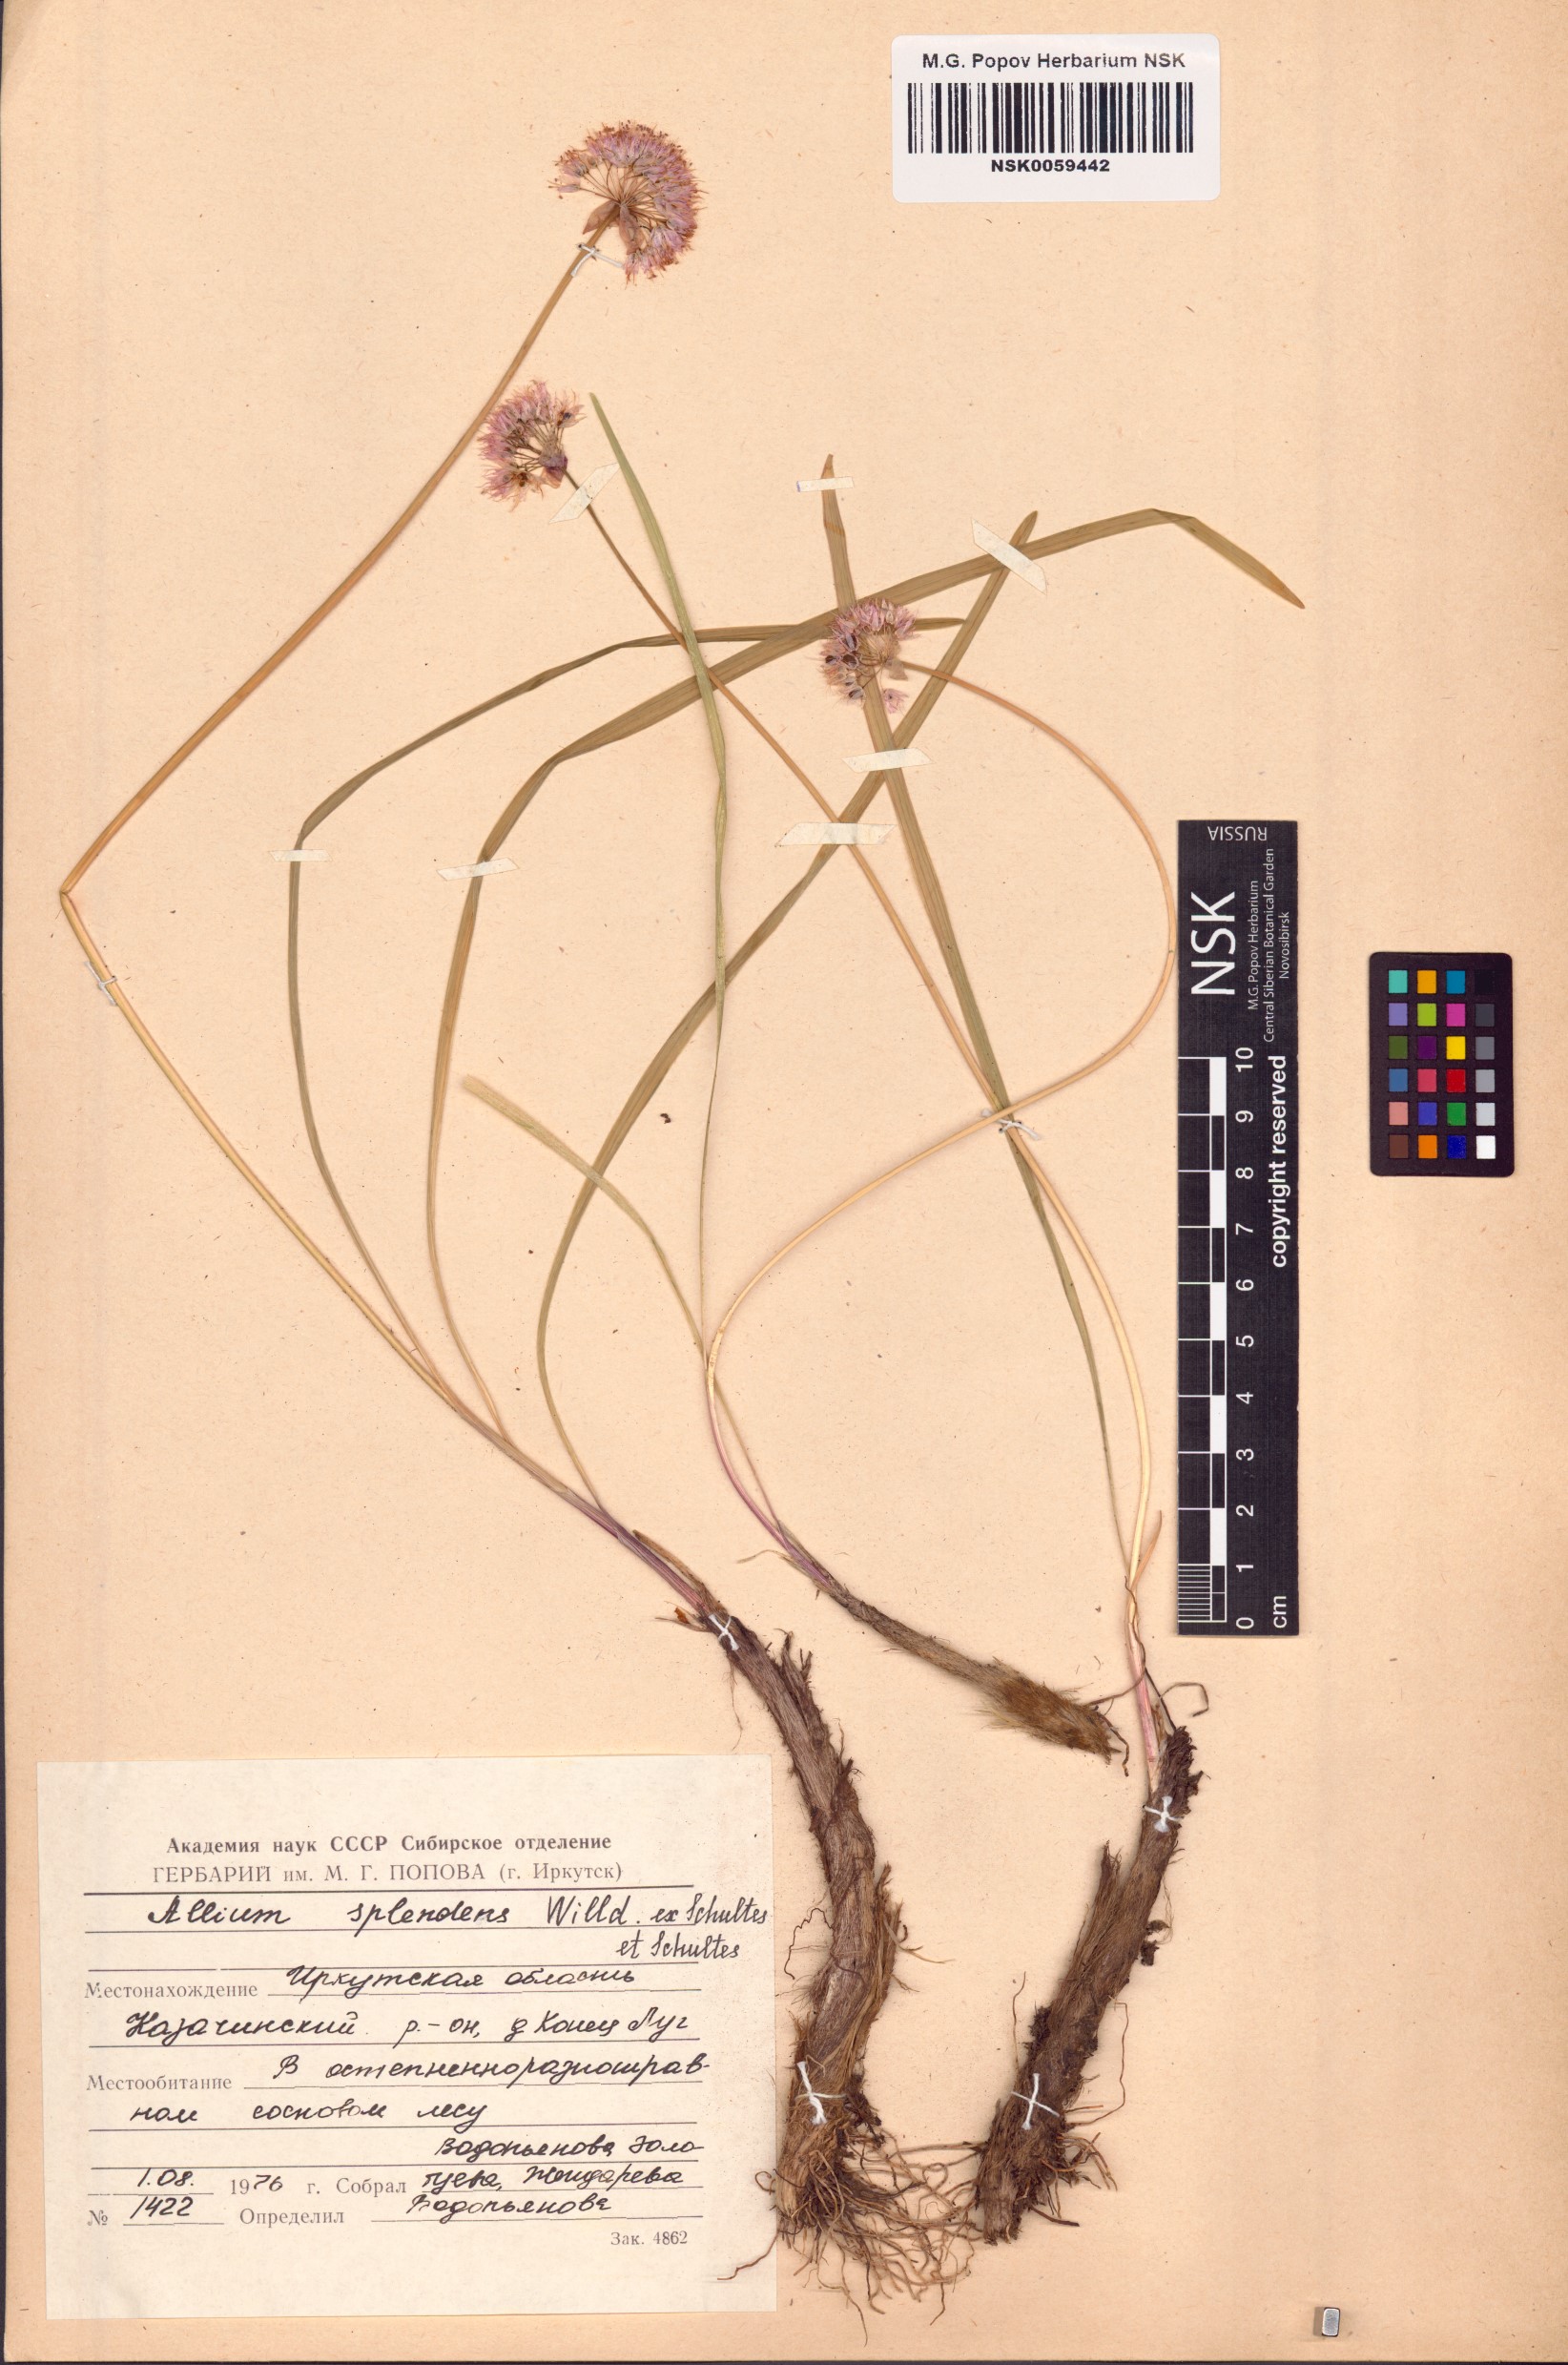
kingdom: Plantae
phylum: Tracheophyta
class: Liliopsida
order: Asparagales
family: Amaryllidaceae
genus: Allium
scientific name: Allium splendens
